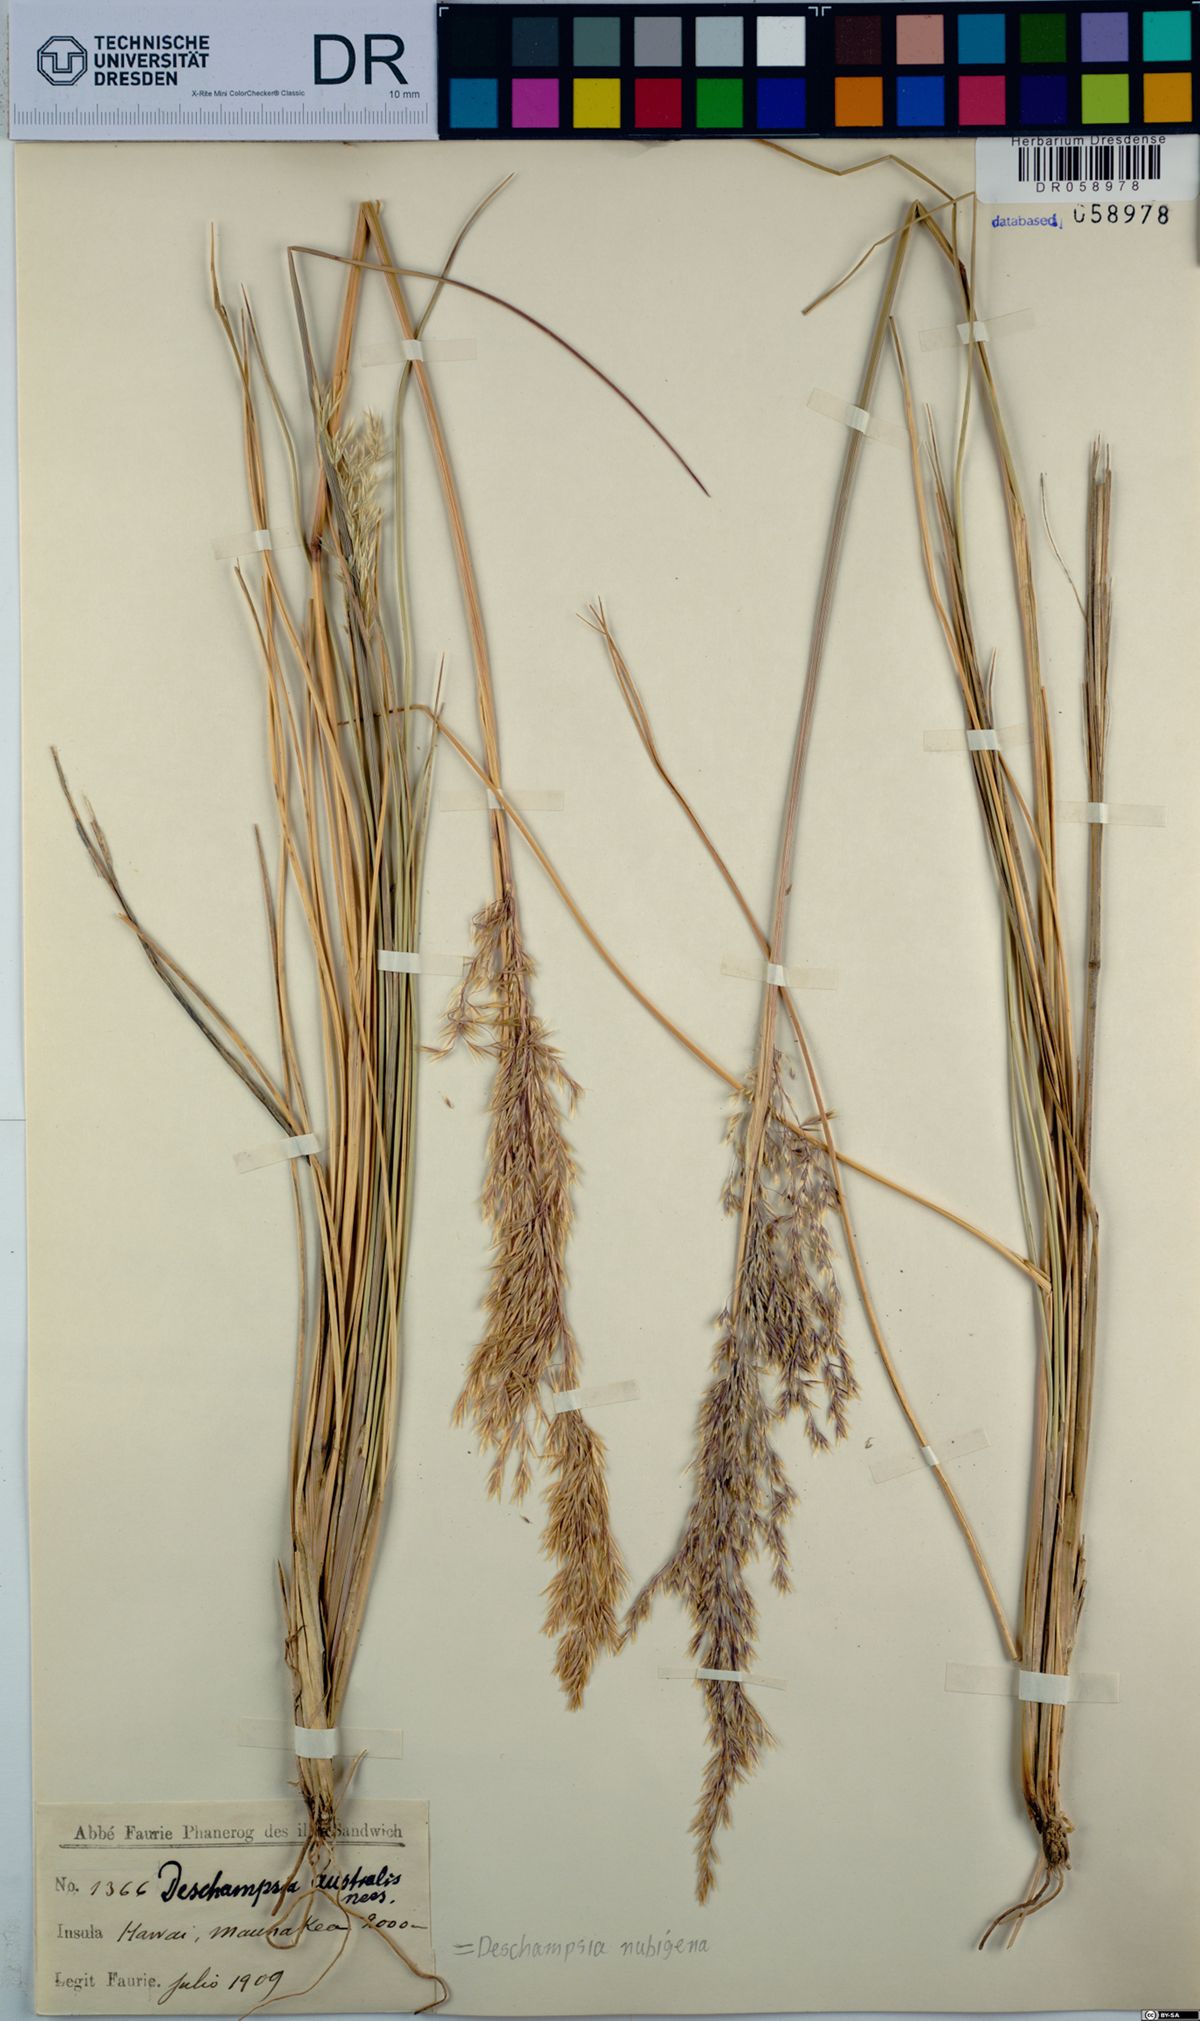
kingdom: Plantae
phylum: Tracheophyta
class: Liliopsida
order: Poales
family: Poaceae
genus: Deschampsia
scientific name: Deschampsia nubigena
